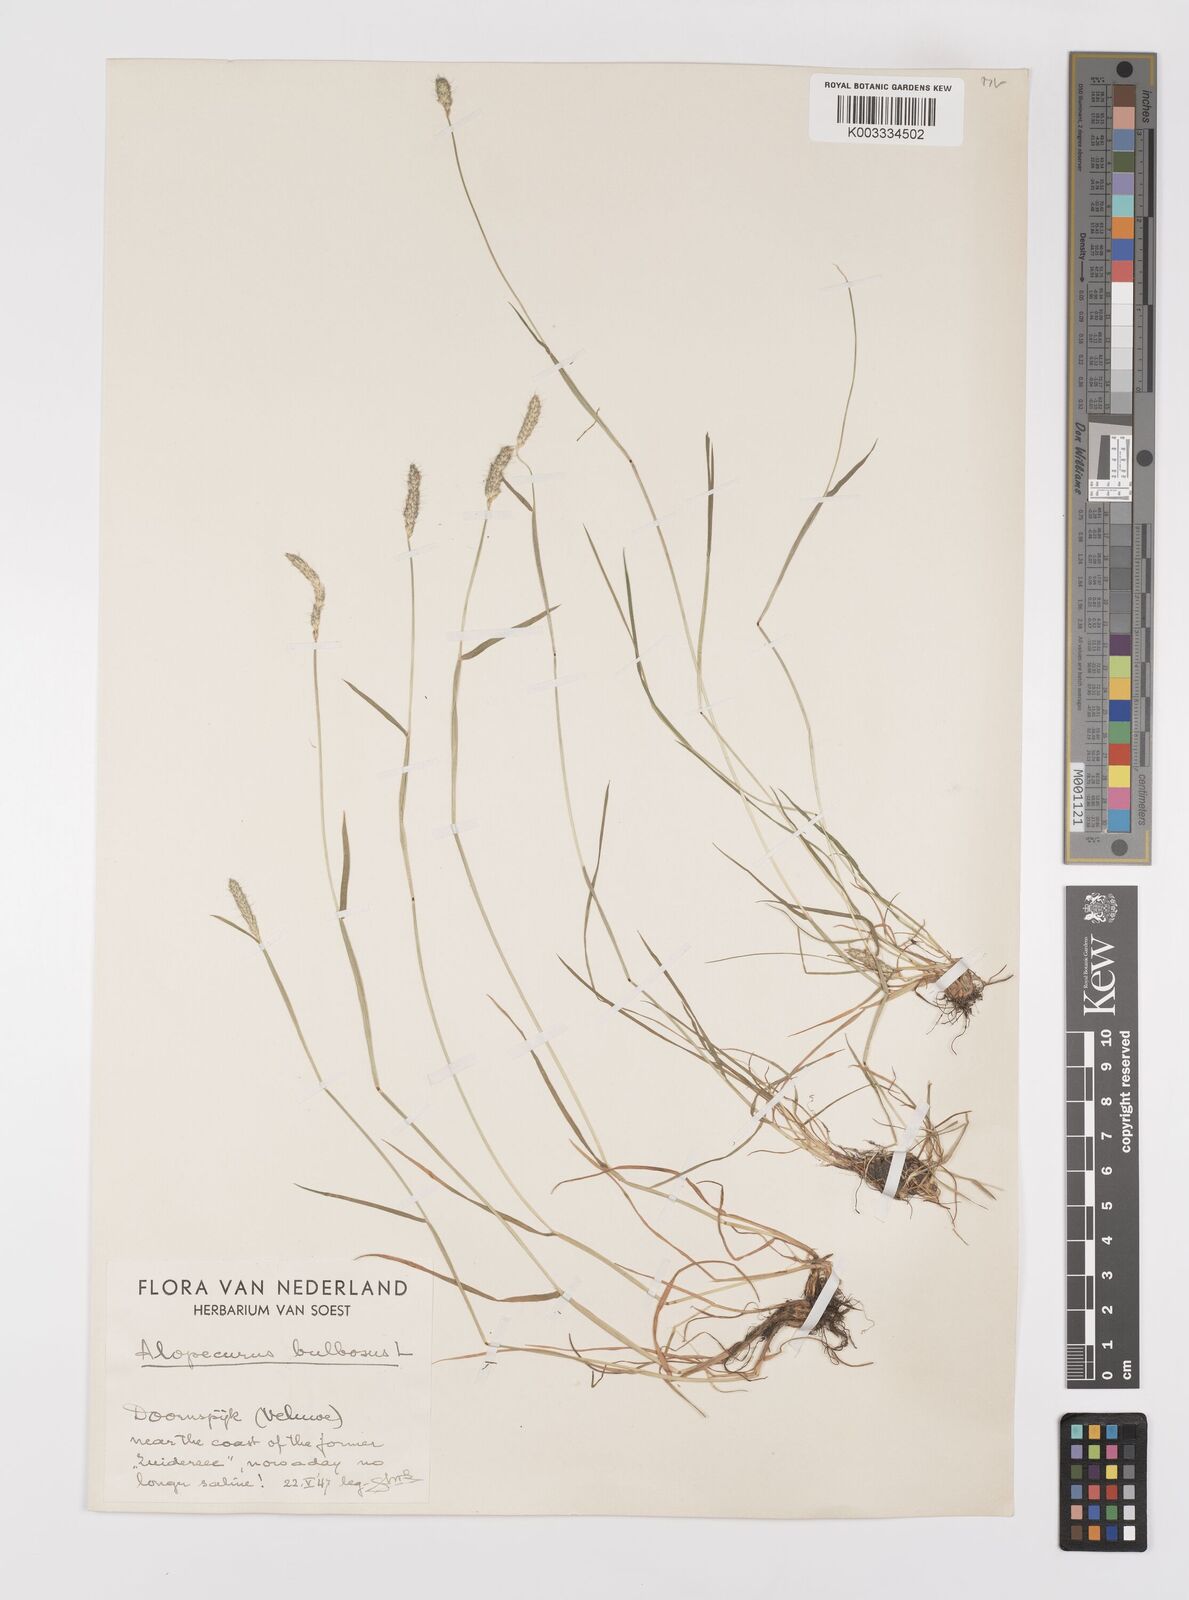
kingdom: Plantae
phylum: Tracheophyta
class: Liliopsida
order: Poales
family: Poaceae
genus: Alopecurus
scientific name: Alopecurus bulbosus
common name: Bulbous foxtail
